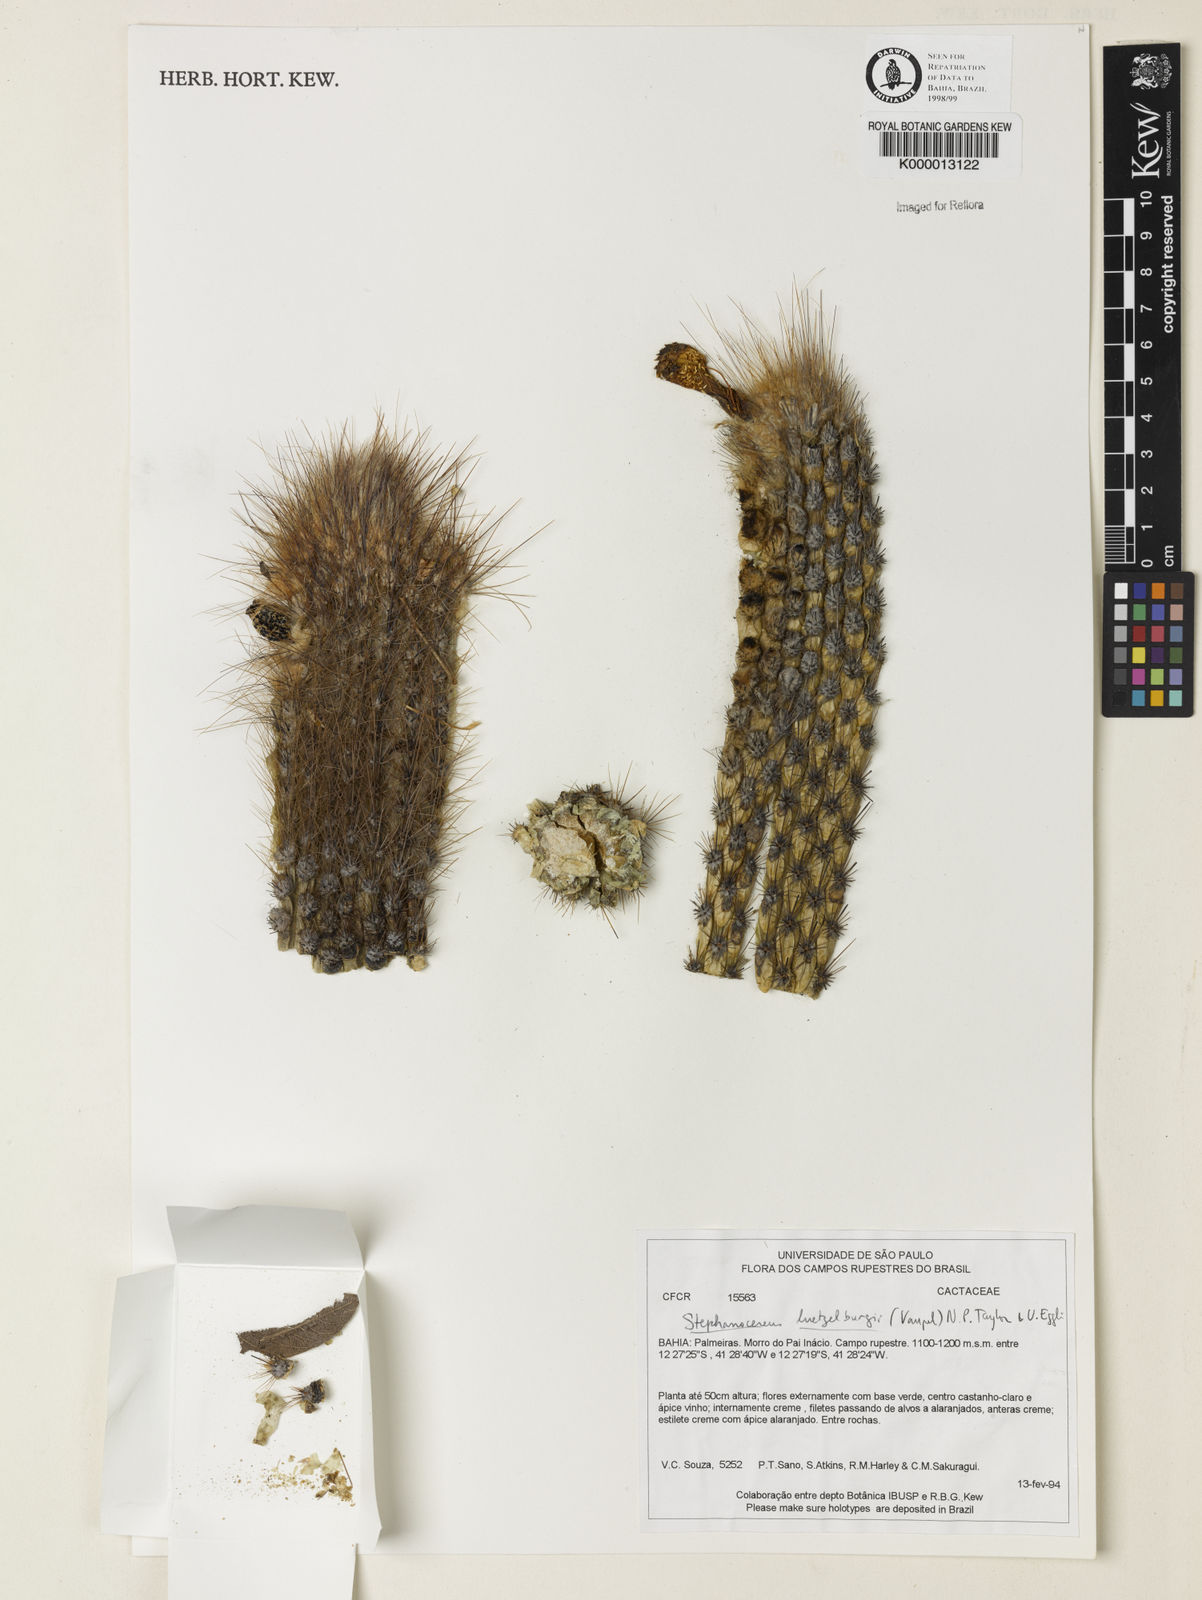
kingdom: Plantae
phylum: Tracheophyta
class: Magnoliopsida
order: Caryophyllales
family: Cactaceae
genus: Lagenosocereus
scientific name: Lagenosocereus luetzelburgii
